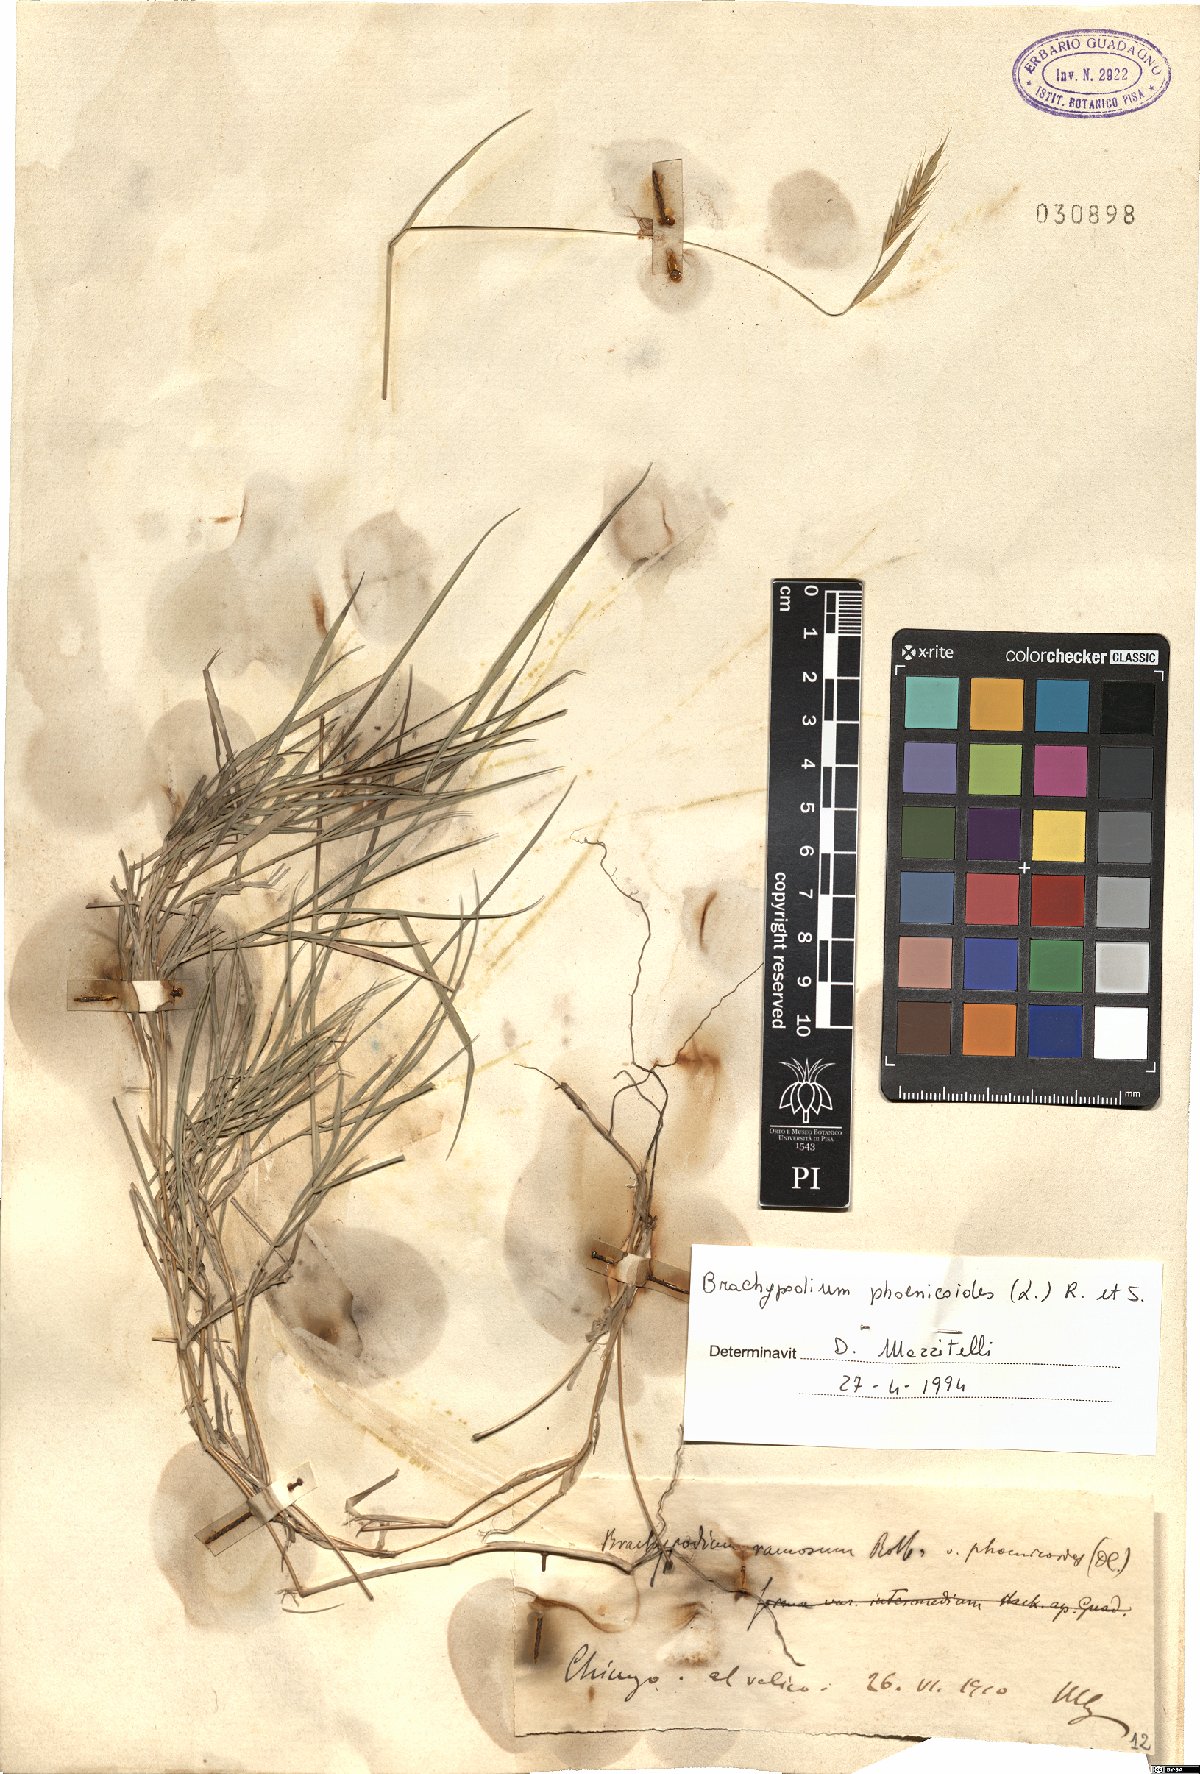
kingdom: Plantae
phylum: Tracheophyta
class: Liliopsida
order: Poales
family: Poaceae
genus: Brachypodium
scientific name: Brachypodium phoenicoides
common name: Thinleaf false brome
